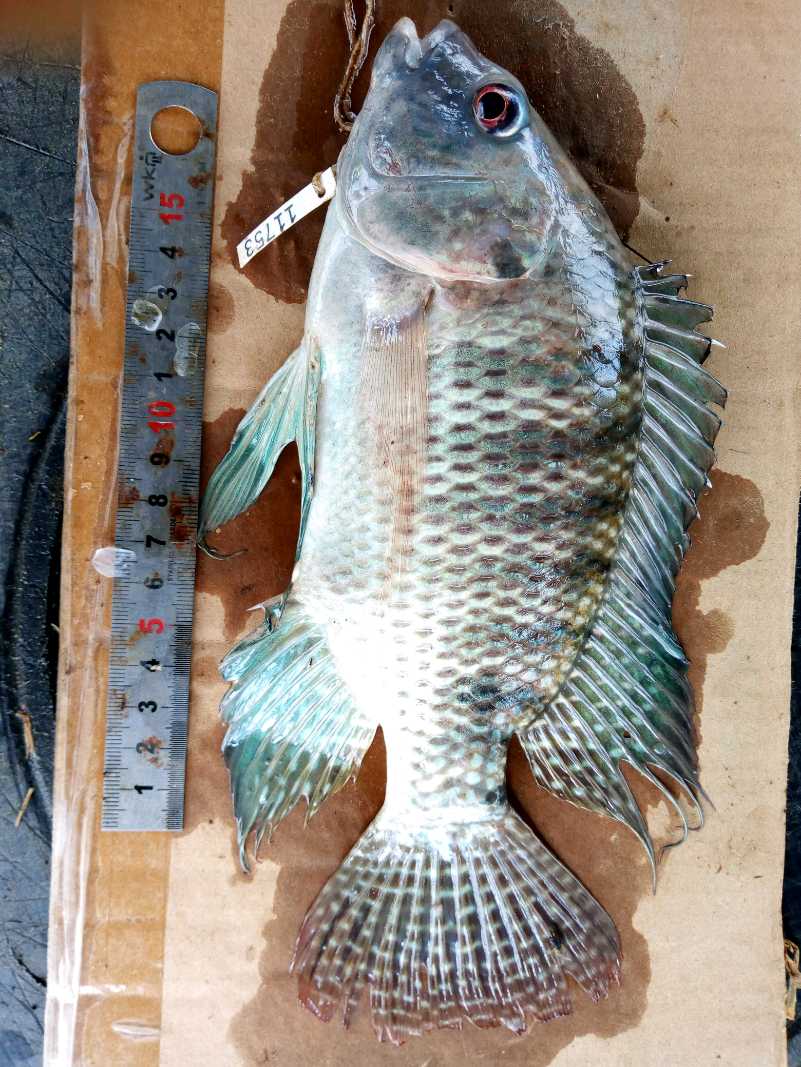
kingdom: Animalia
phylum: Chordata
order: Perciformes
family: Cichlidae
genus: Oreochromis
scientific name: Oreochromis spilurus
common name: Sabaki tilapia
